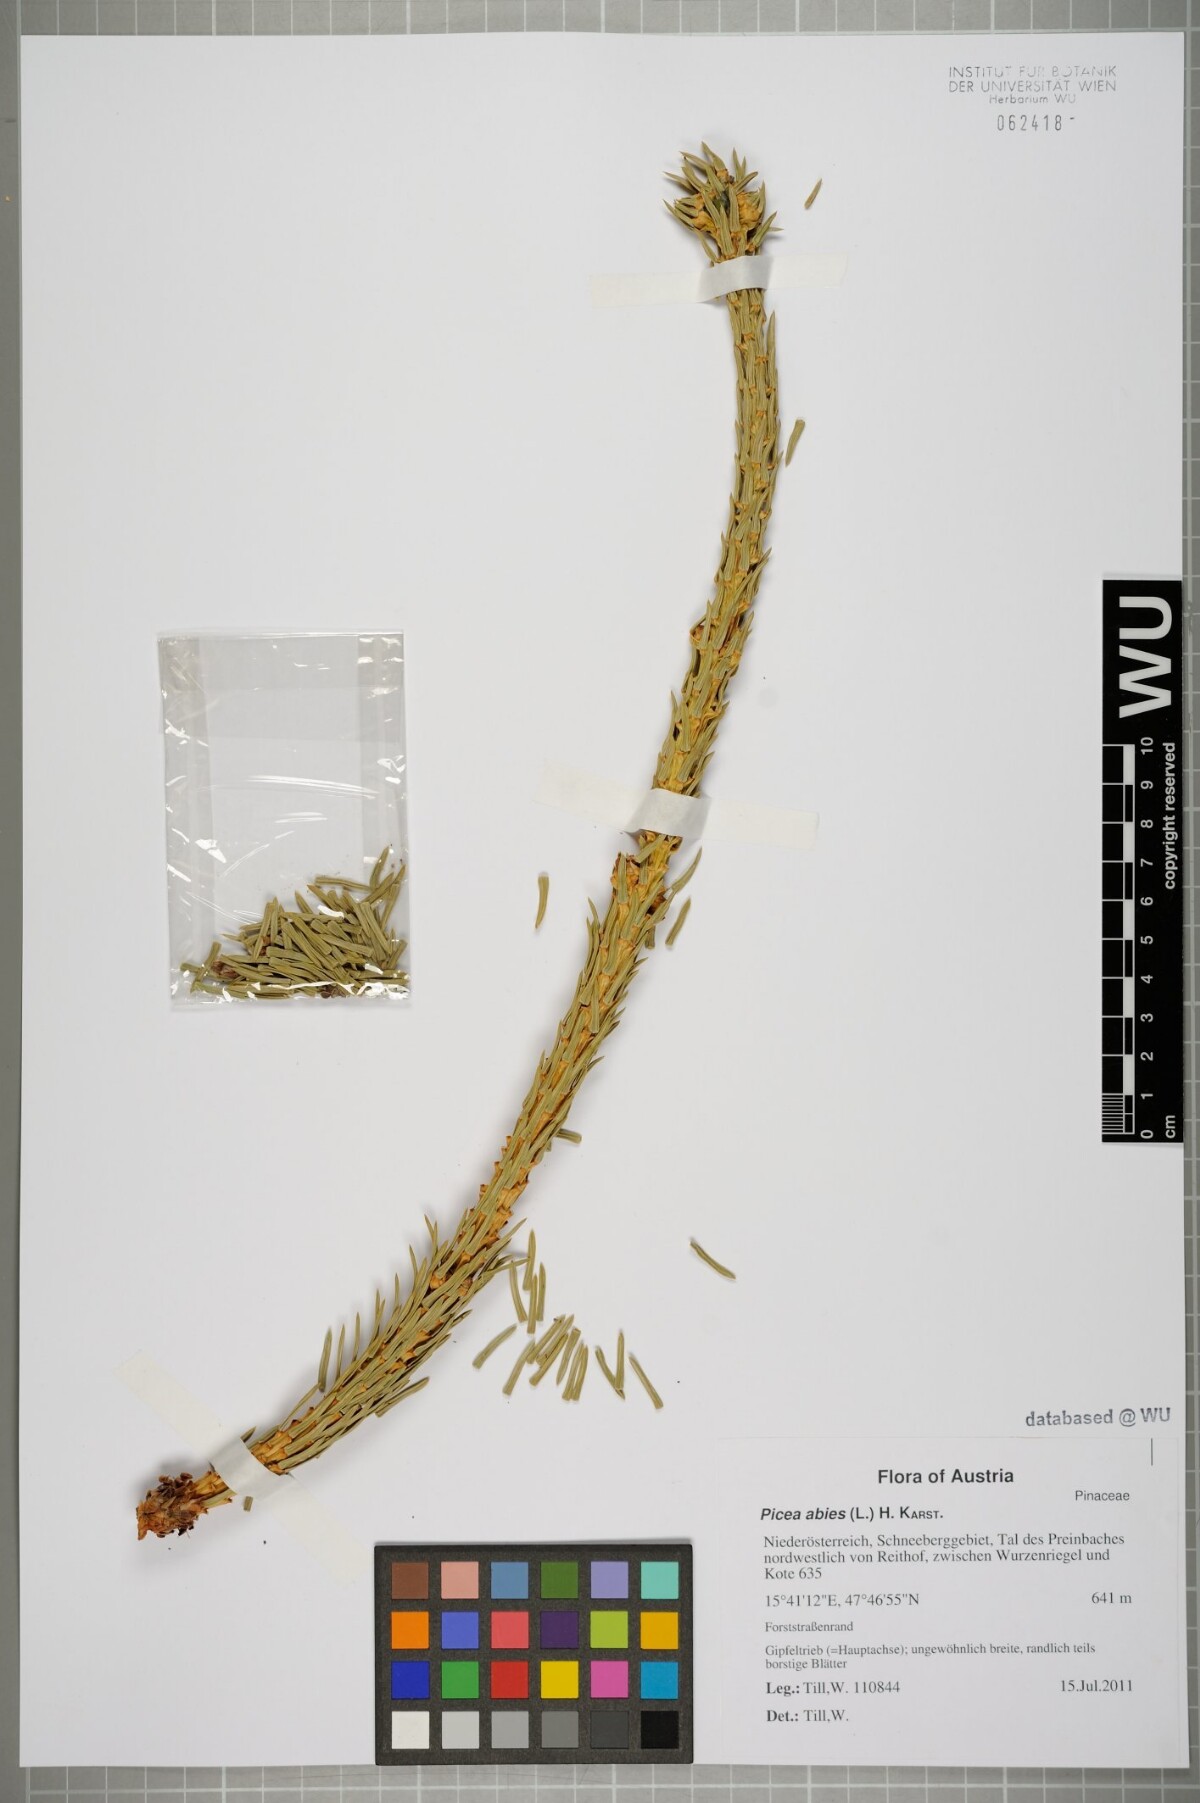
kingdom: Plantae
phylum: Tracheophyta
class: Pinopsida
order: Pinales
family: Pinaceae
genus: Picea
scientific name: Picea abies
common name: Norway spruce
